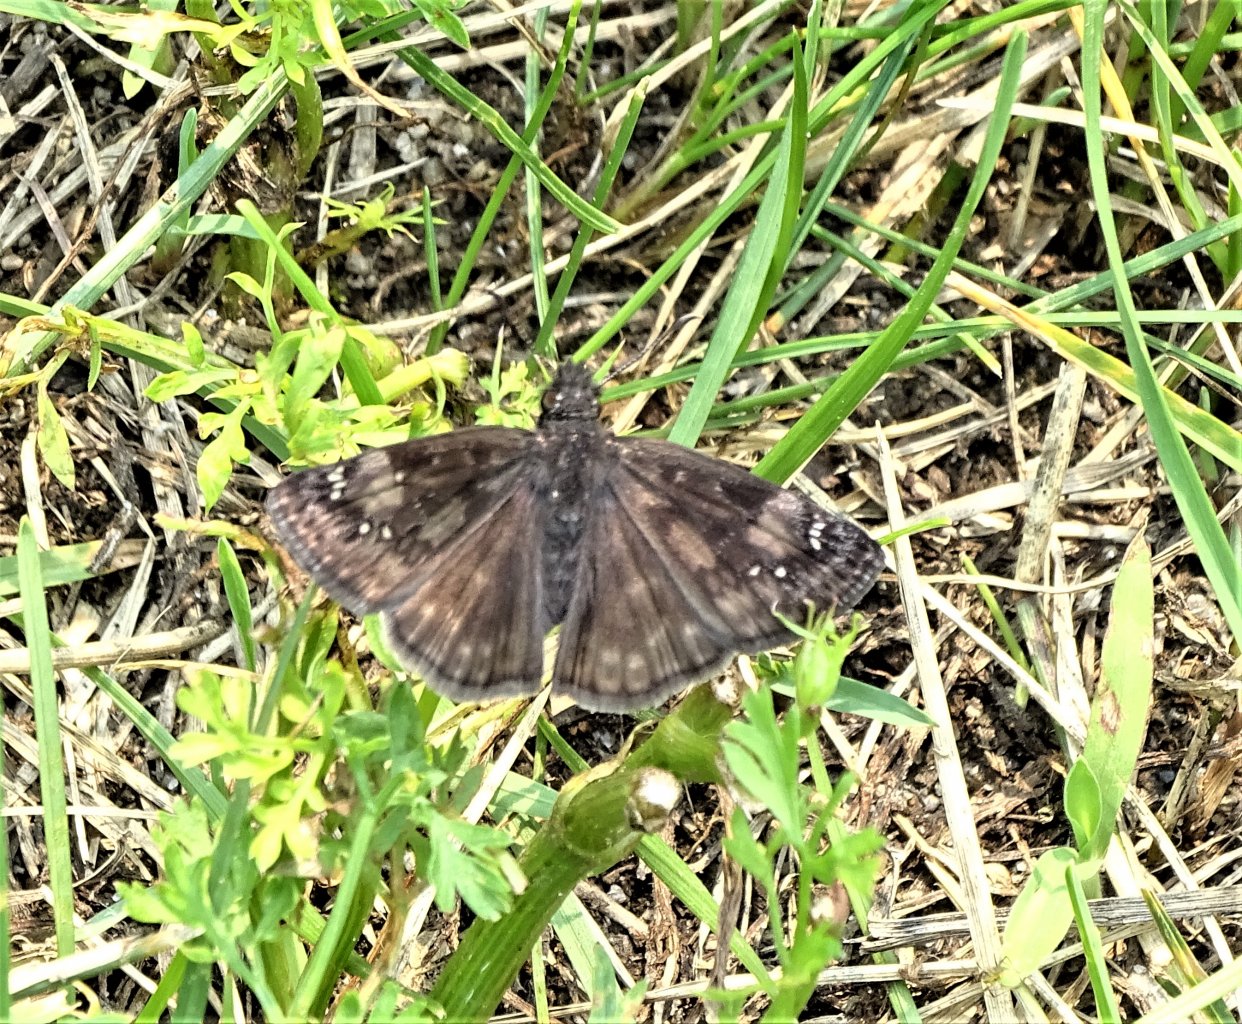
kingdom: Animalia
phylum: Arthropoda
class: Insecta
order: Lepidoptera
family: Hesperiidae
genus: Gesta
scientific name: Gesta
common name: Wild Indigo Duskywing
